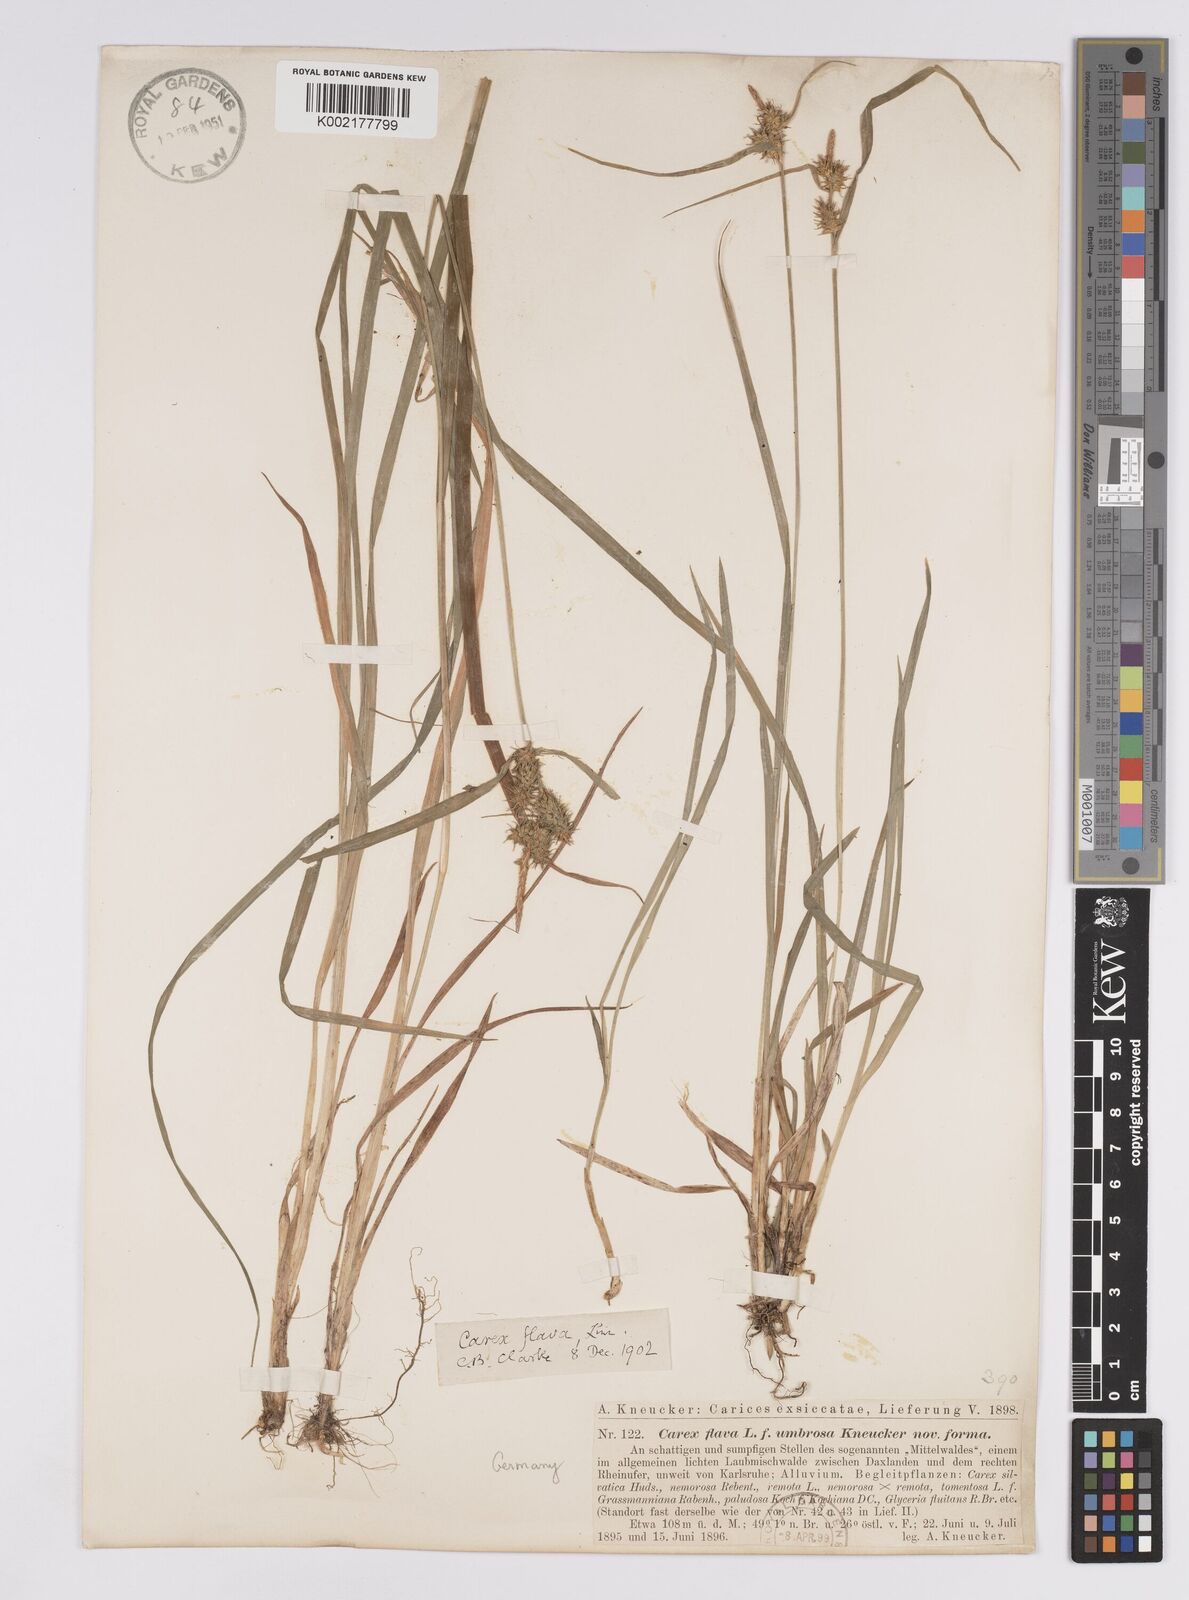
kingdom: Plantae
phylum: Tracheophyta
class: Liliopsida
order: Poales
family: Cyperaceae
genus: Carex
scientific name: Carex flava
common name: Large yellow-sedge
